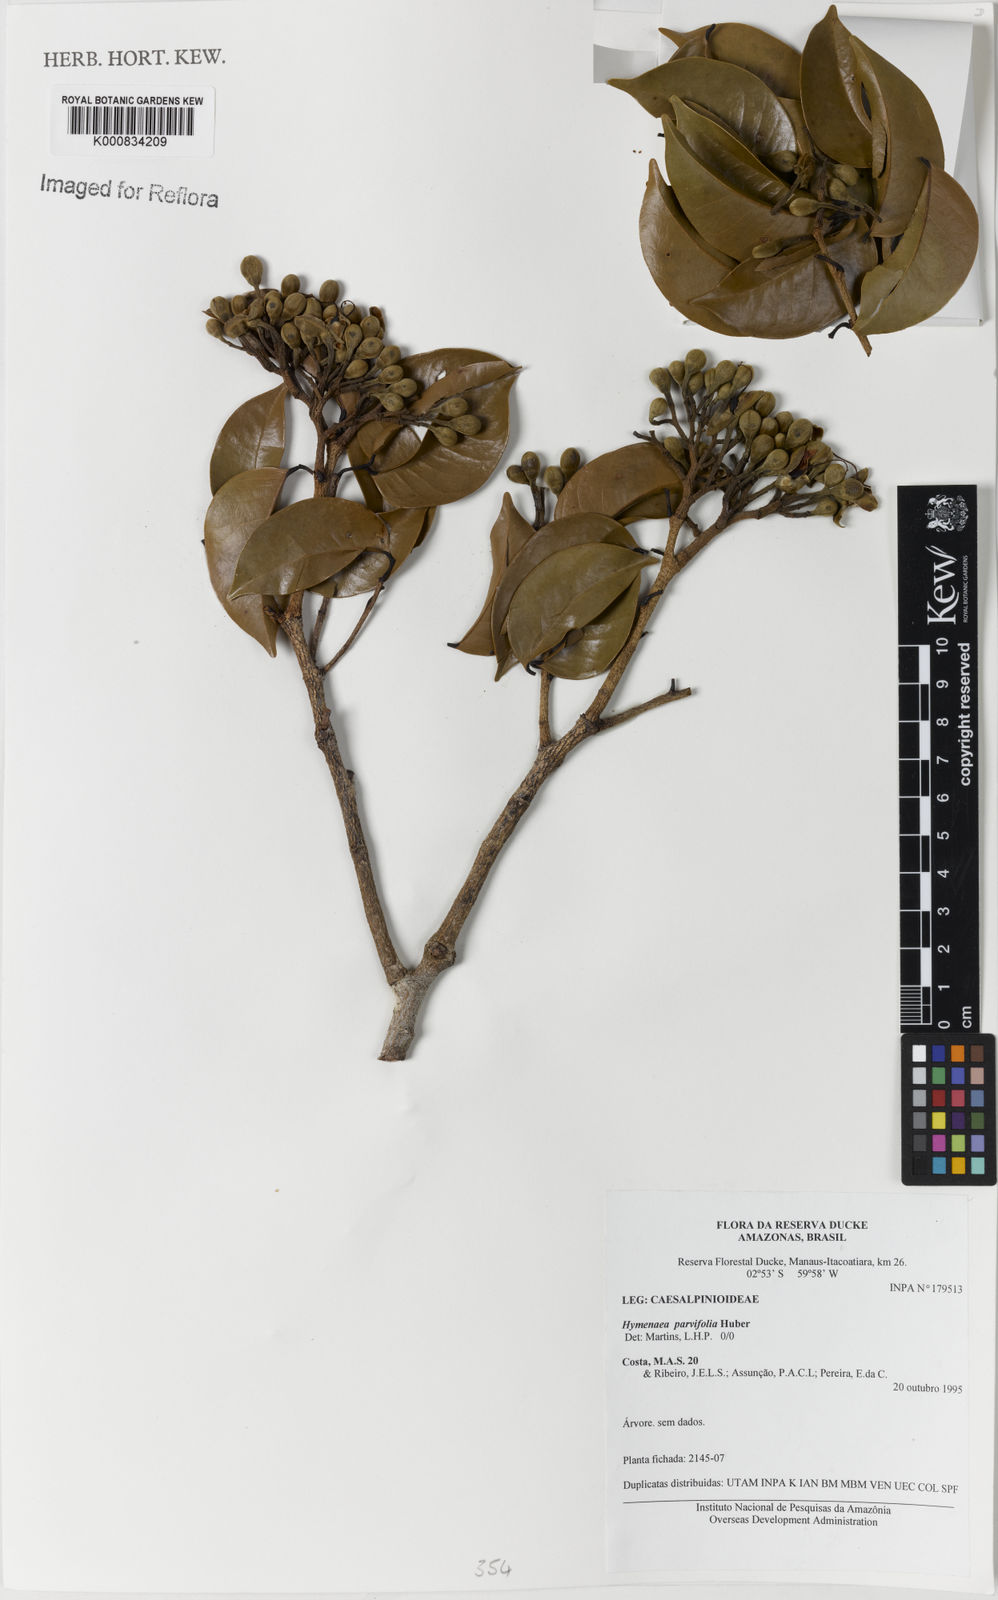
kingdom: Plantae
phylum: Tracheophyta
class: Magnoliopsida
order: Fabales
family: Fabaceae
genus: Hymenaea
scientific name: Hymenaea parvifolia
